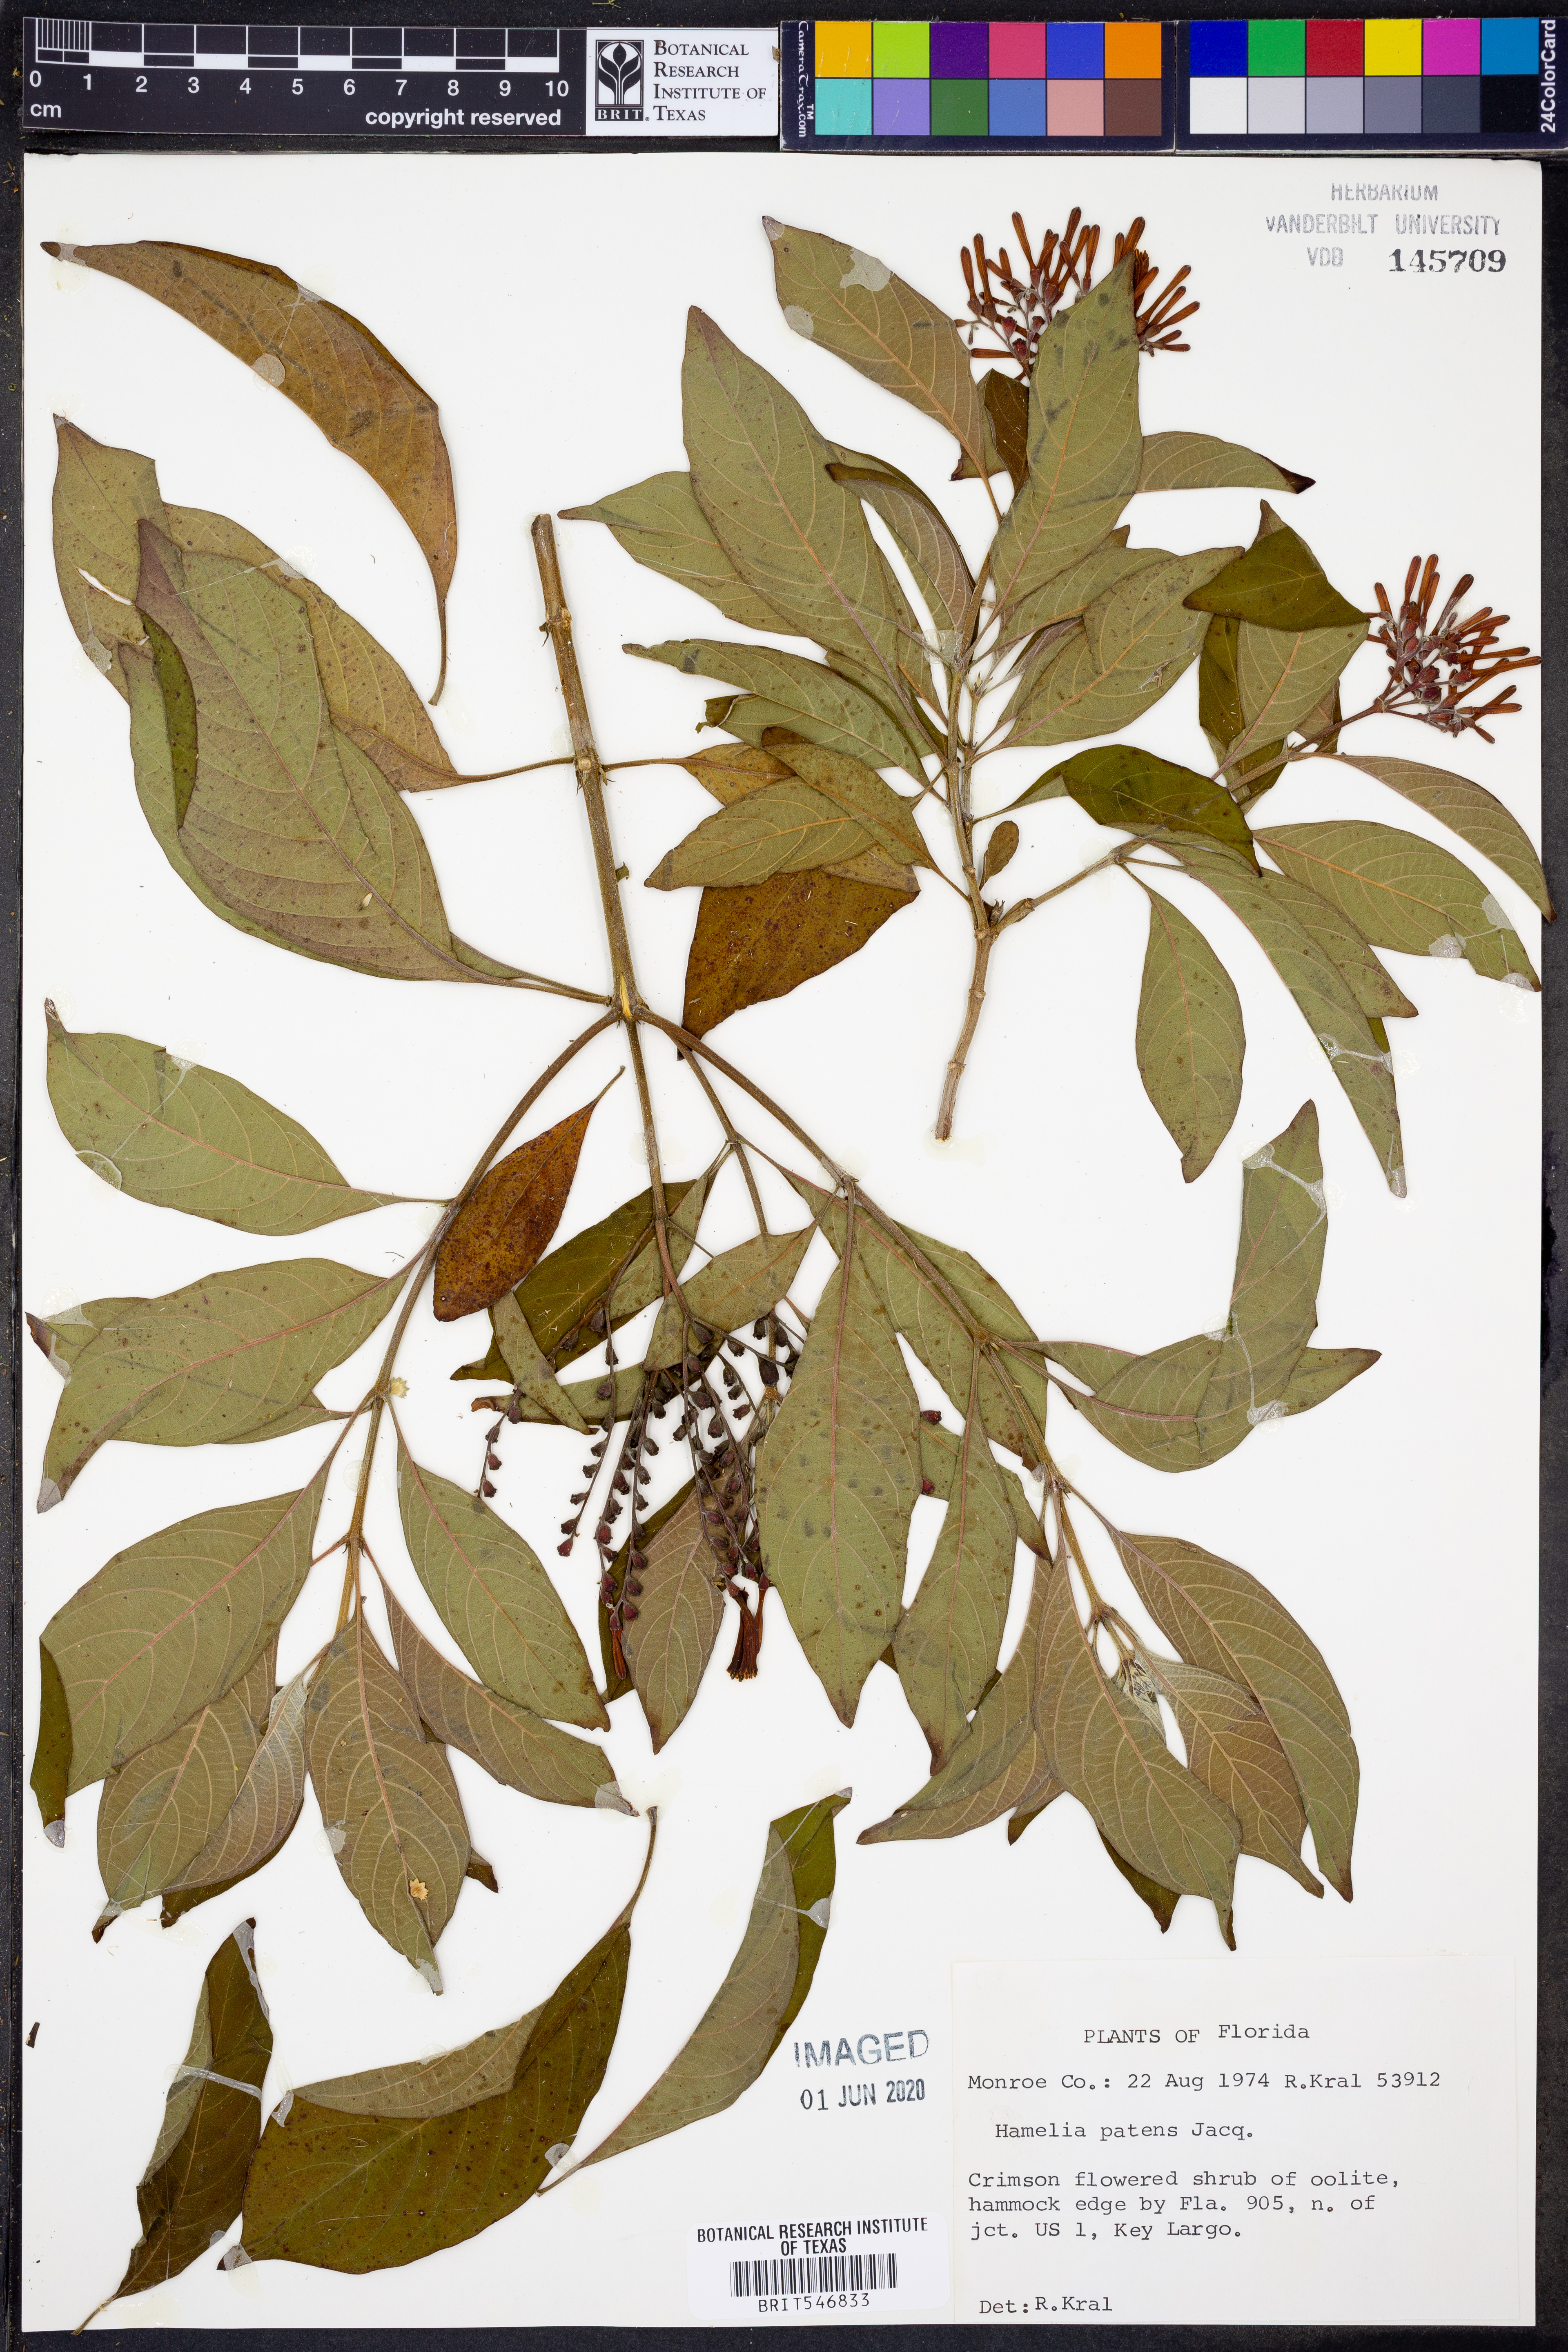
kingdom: Plantae
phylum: Tracheophyta
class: Magnoliopsida
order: Gentianales
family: Rubiaceae
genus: Hamelia
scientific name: Hamelia patens
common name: Redhead
